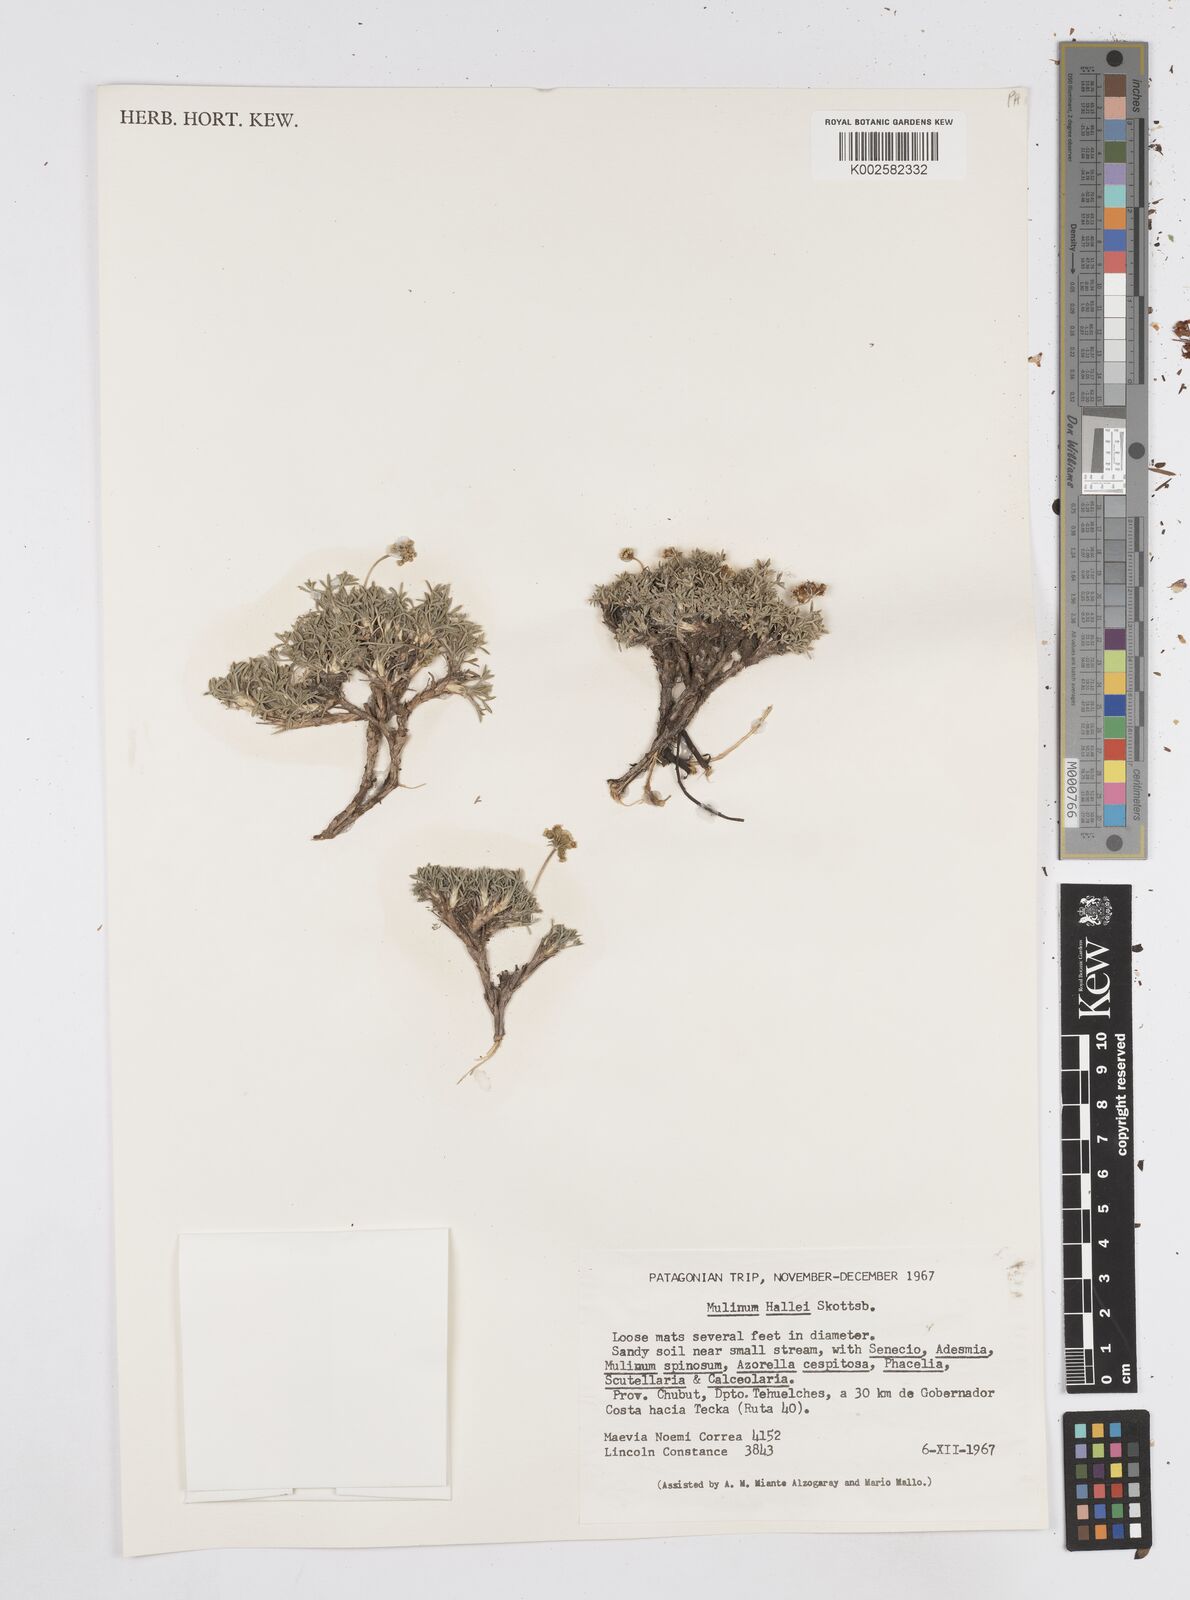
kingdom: Plantae
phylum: Tracheophyta
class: Magnoliopsida
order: Apiales
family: Apiaceae
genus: Azorella
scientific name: Azorella hallei
